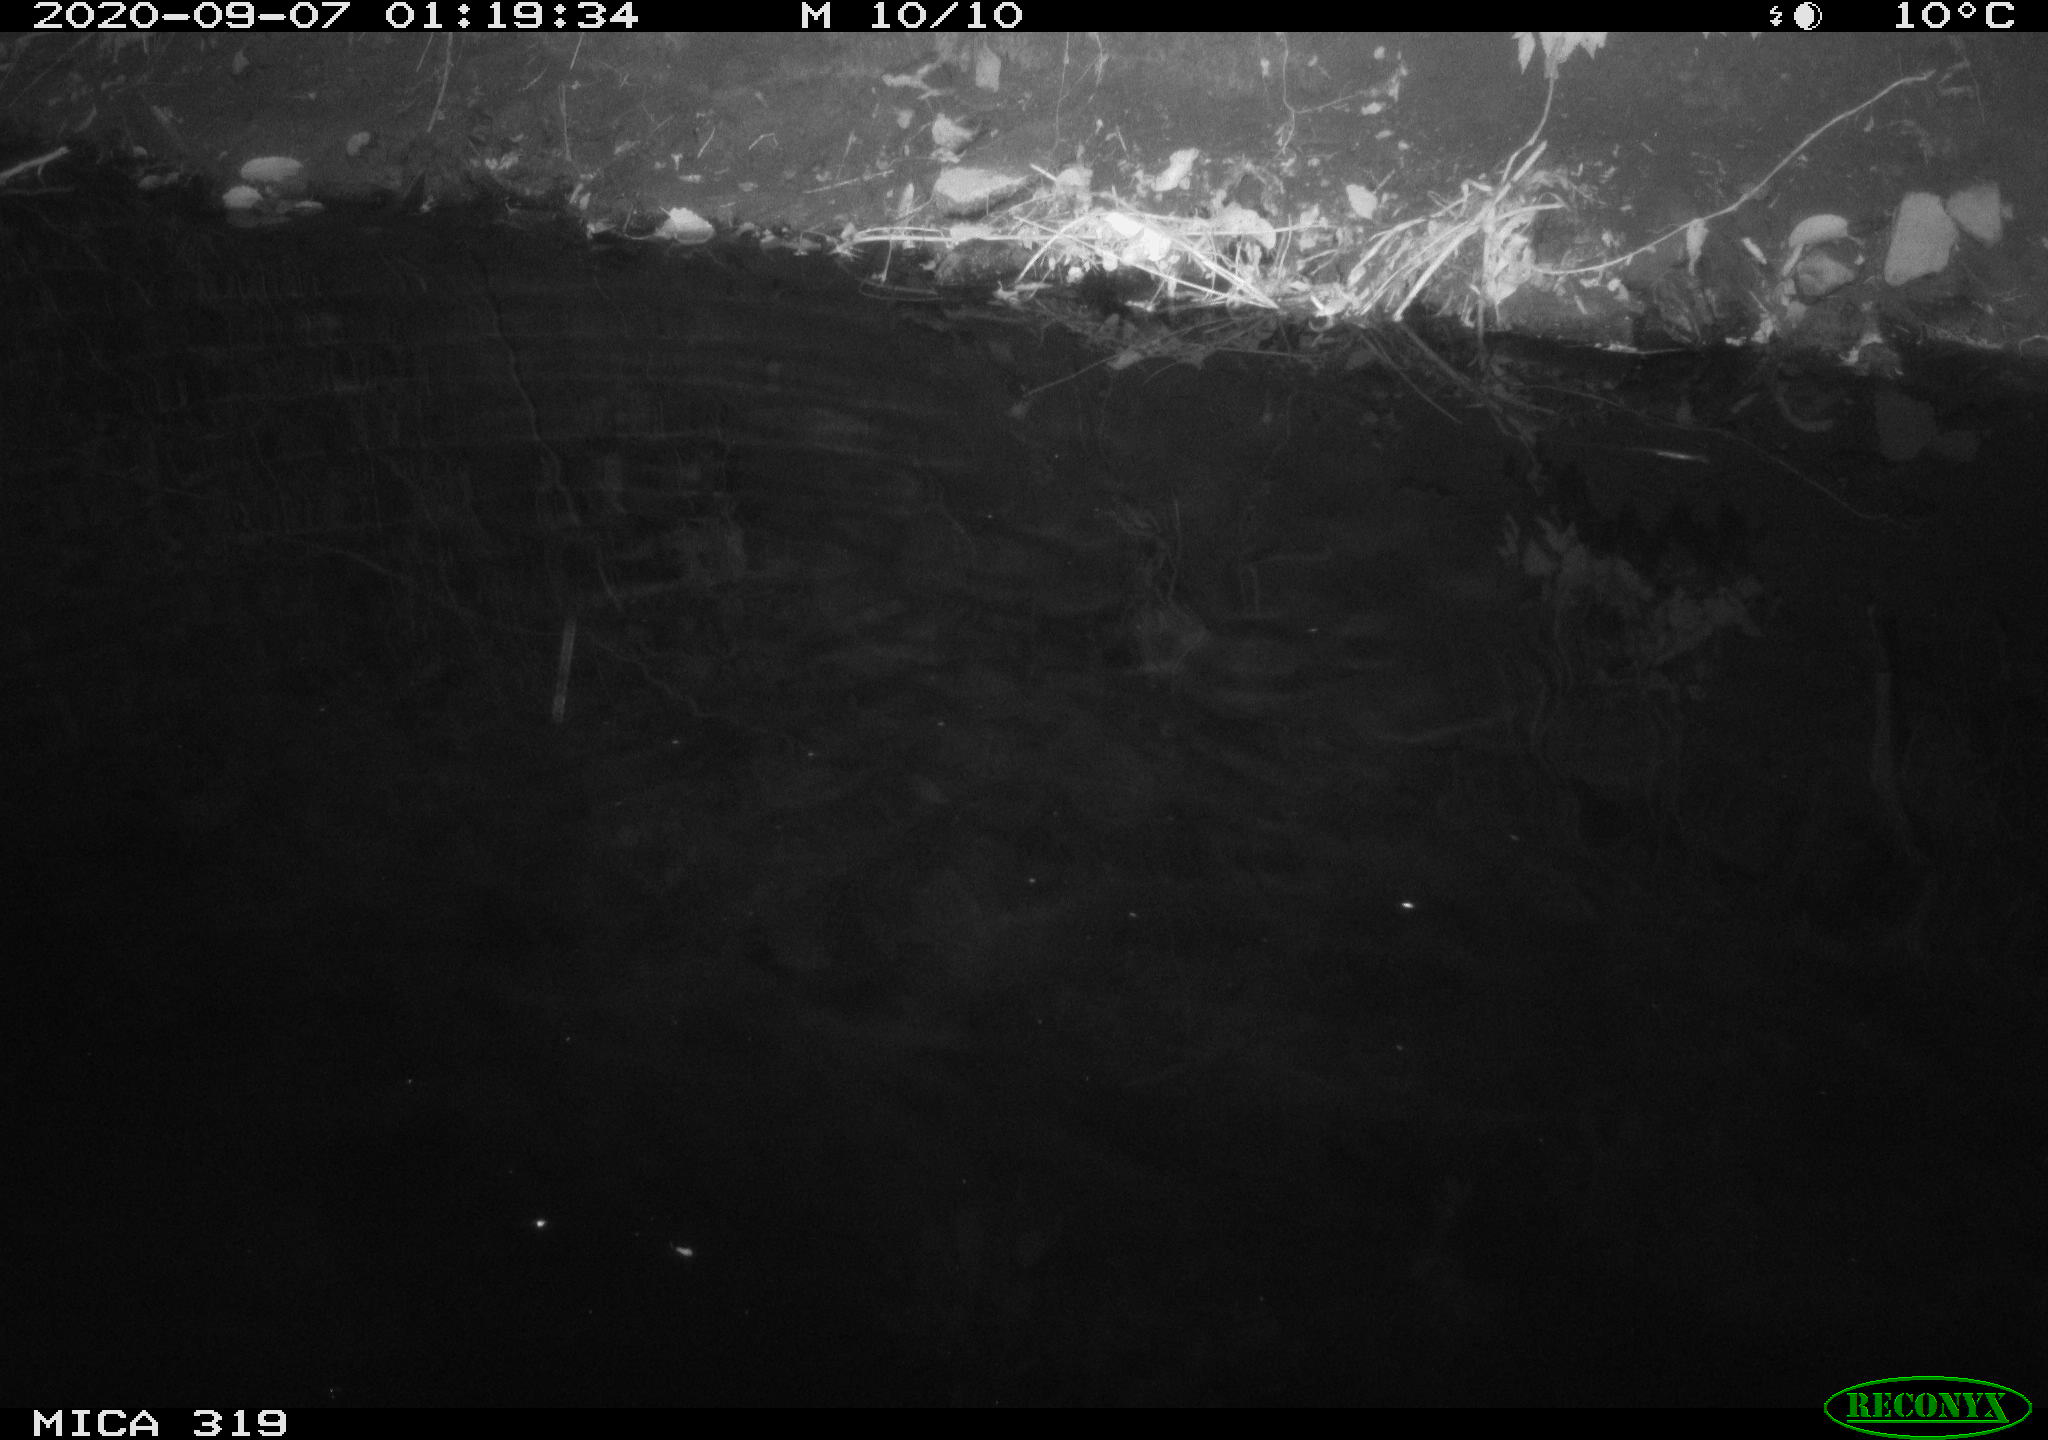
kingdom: Animalia
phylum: Chordata
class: Aves
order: Anseriformes
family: Anatidae
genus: Anas
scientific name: Anas platyrhynchos
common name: Mallard
